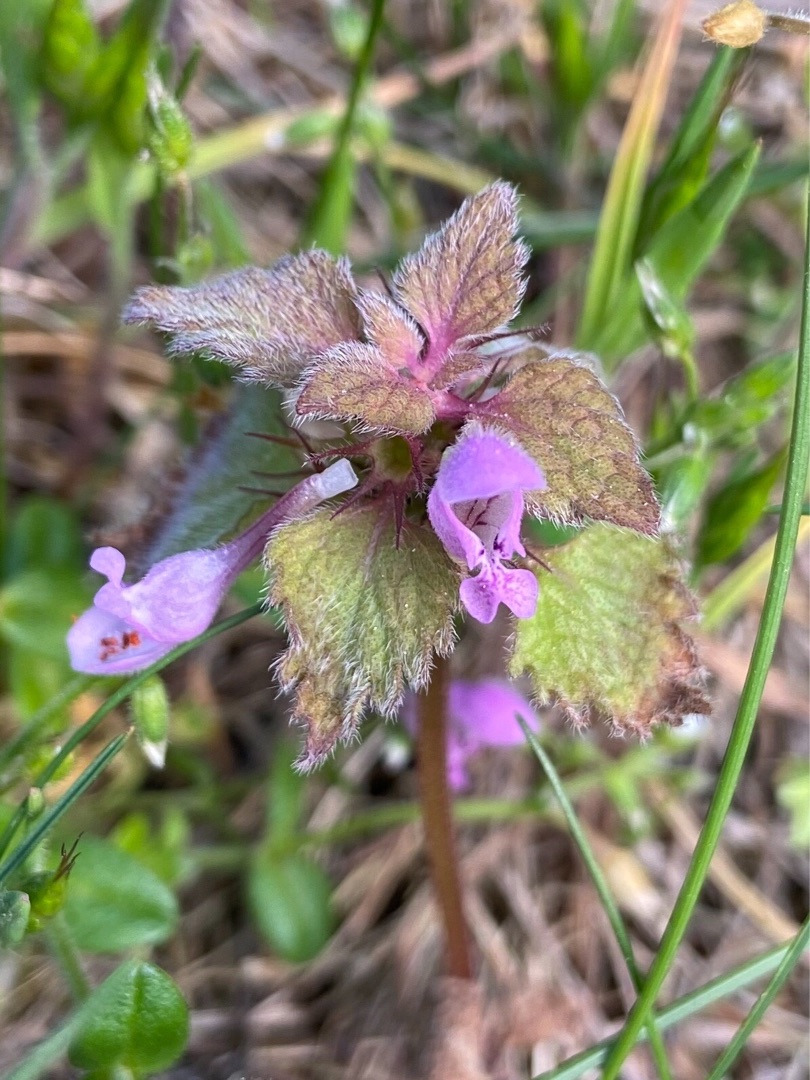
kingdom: Plantae
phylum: Tracheophyta
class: Magnoliopsida
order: Lamiales
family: Lamiaceae
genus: Lamium
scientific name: Lamium purpureum
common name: Rød tvetand
